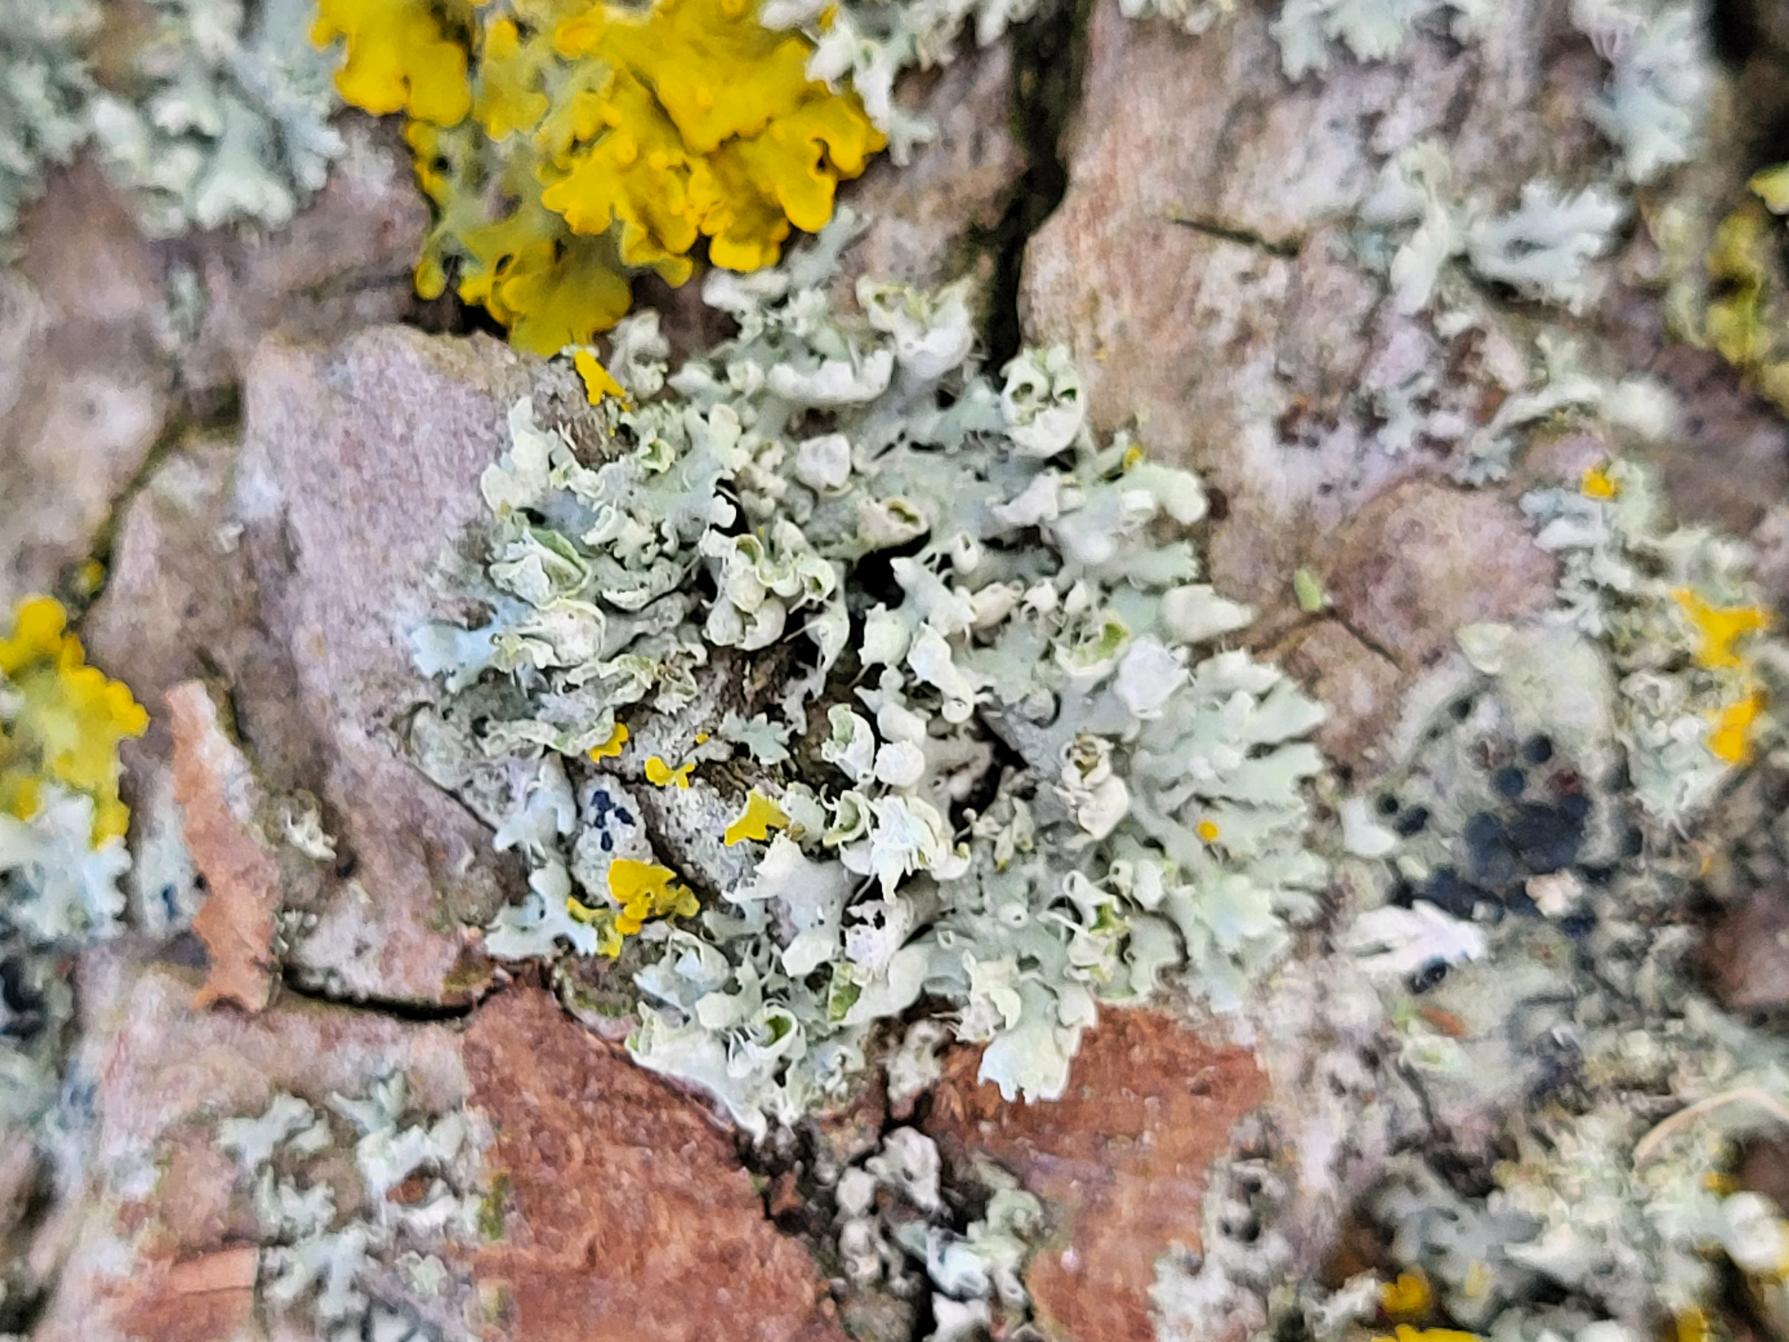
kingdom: Fungi
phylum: Ascomycota
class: Lecanoromycetes
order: Caliciales
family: Physciaceae
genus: Physcia
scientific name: Physcia adscendens
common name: Hætte-rosetlav
